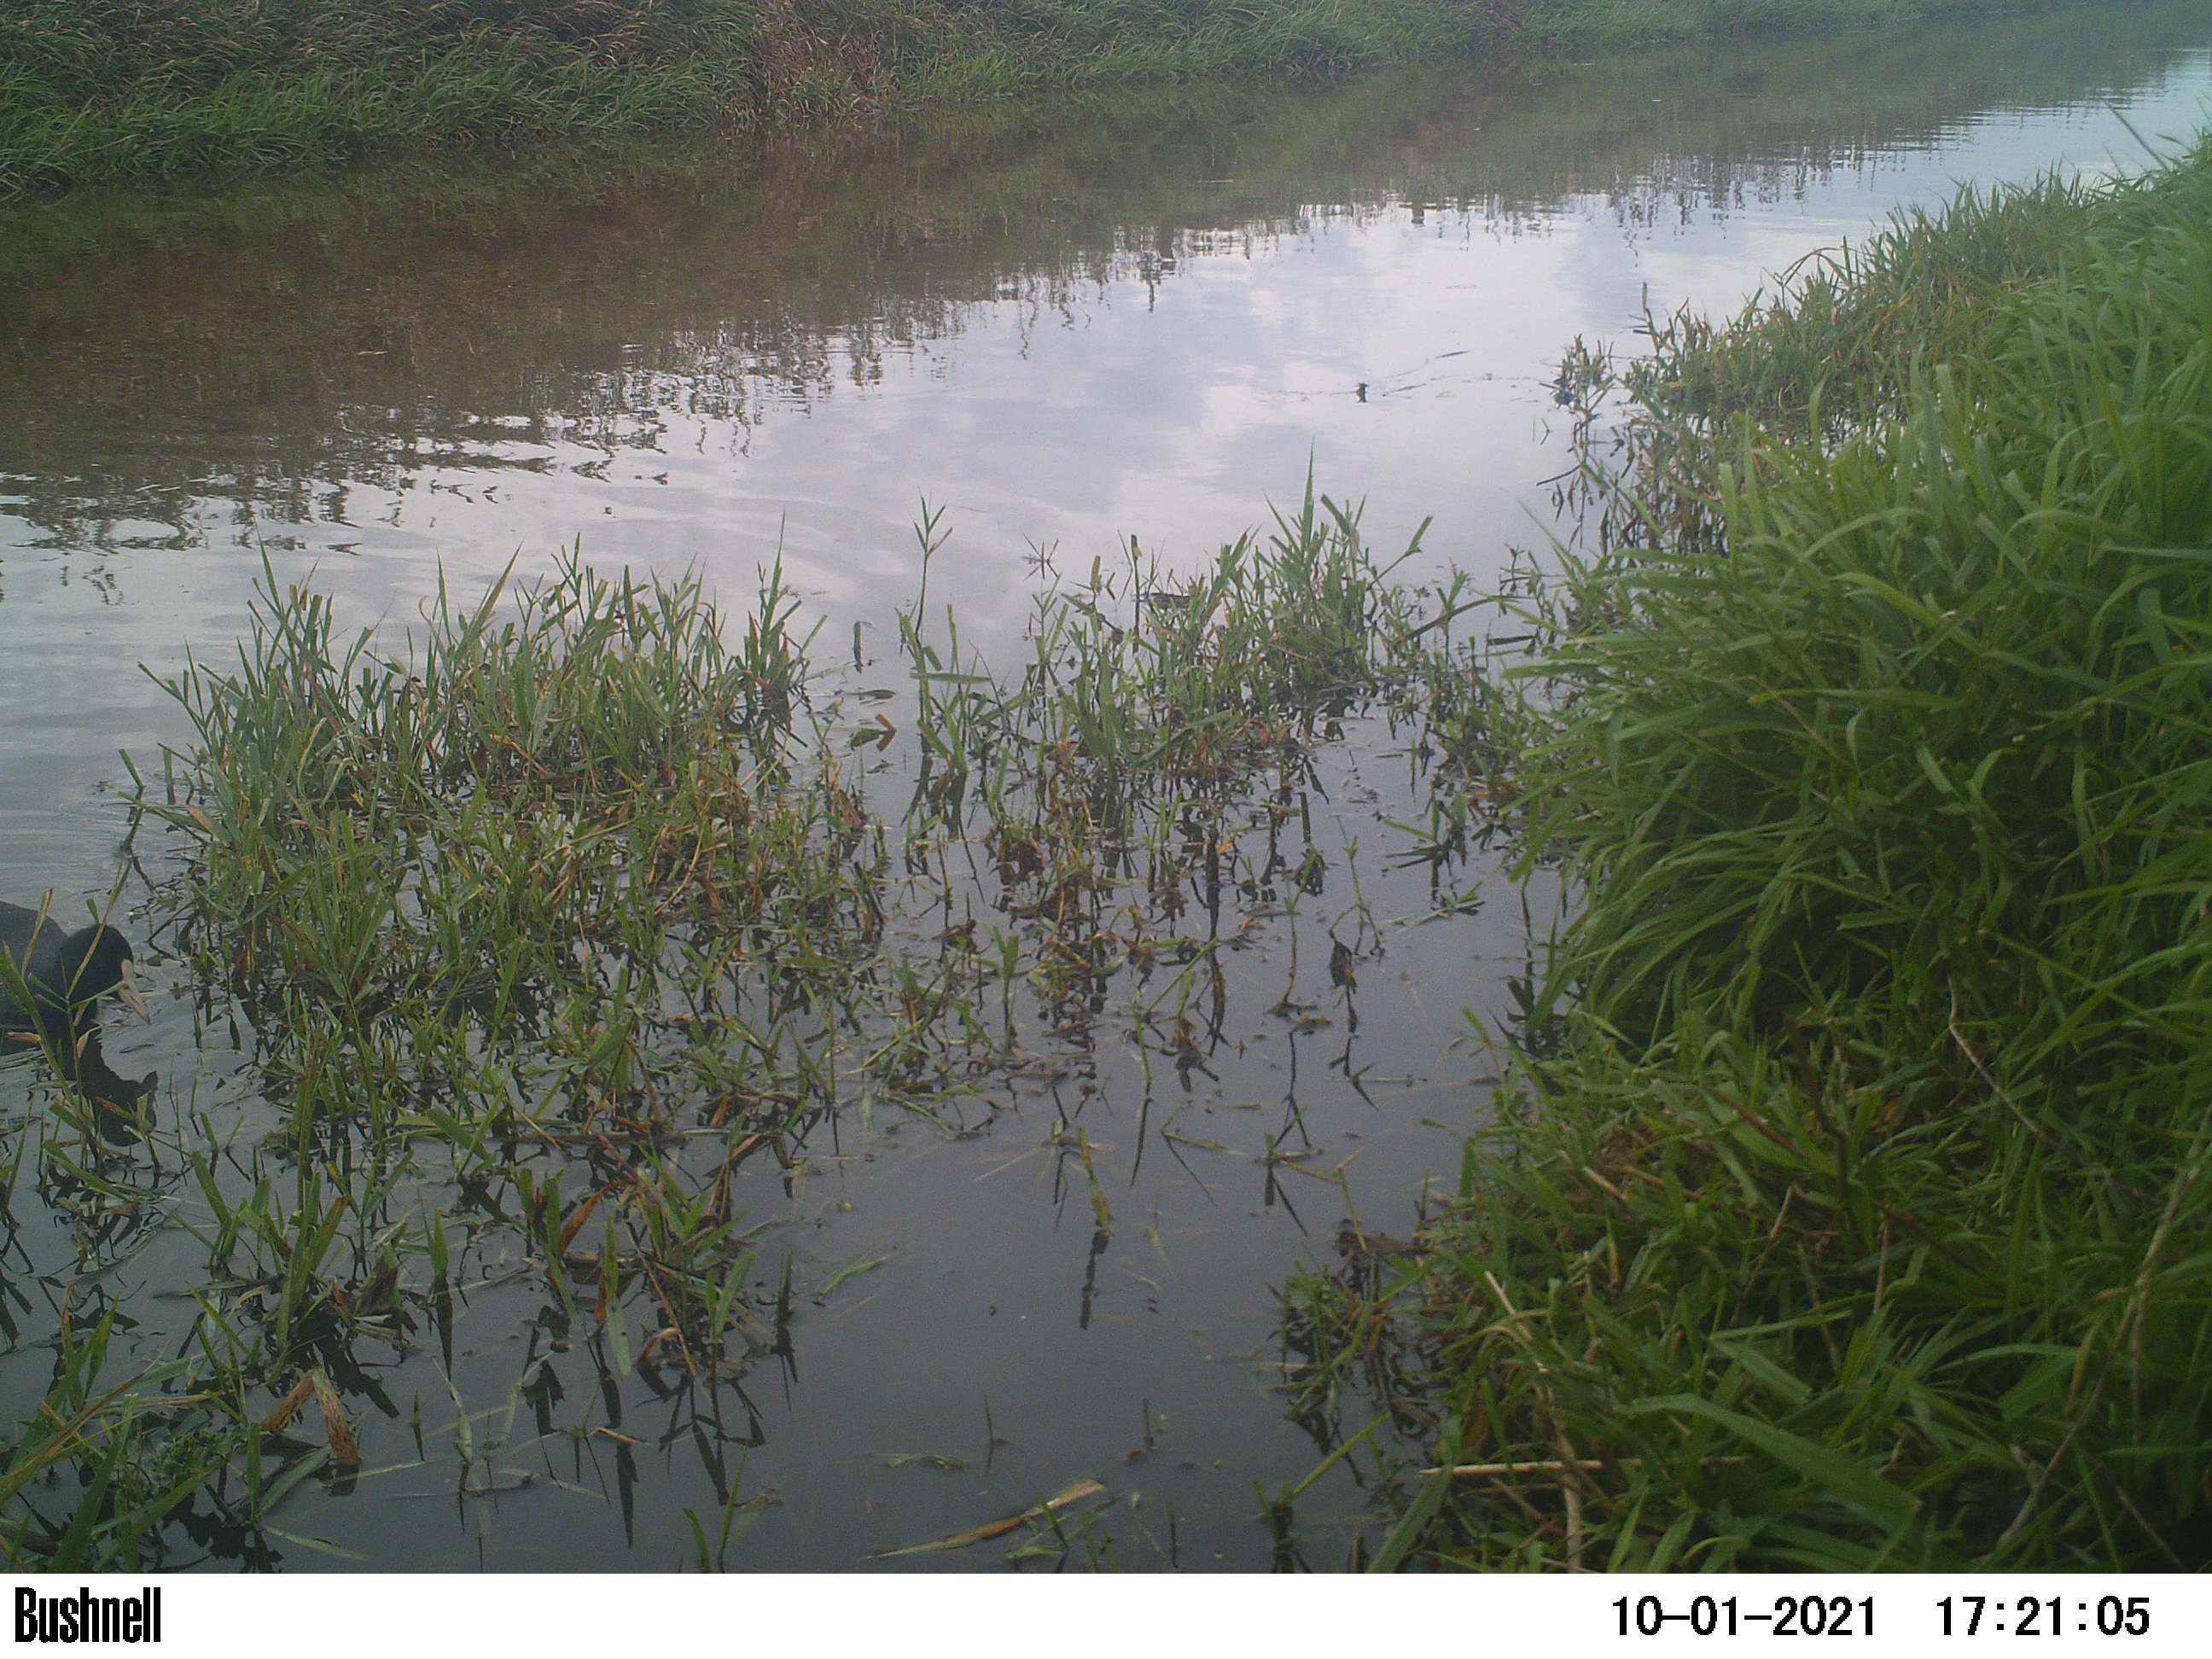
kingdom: Animalia
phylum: Chordata
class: Aves
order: Gruiformes
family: Rallidae
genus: Fulica
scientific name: Fulica atra
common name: Eurasian coot
